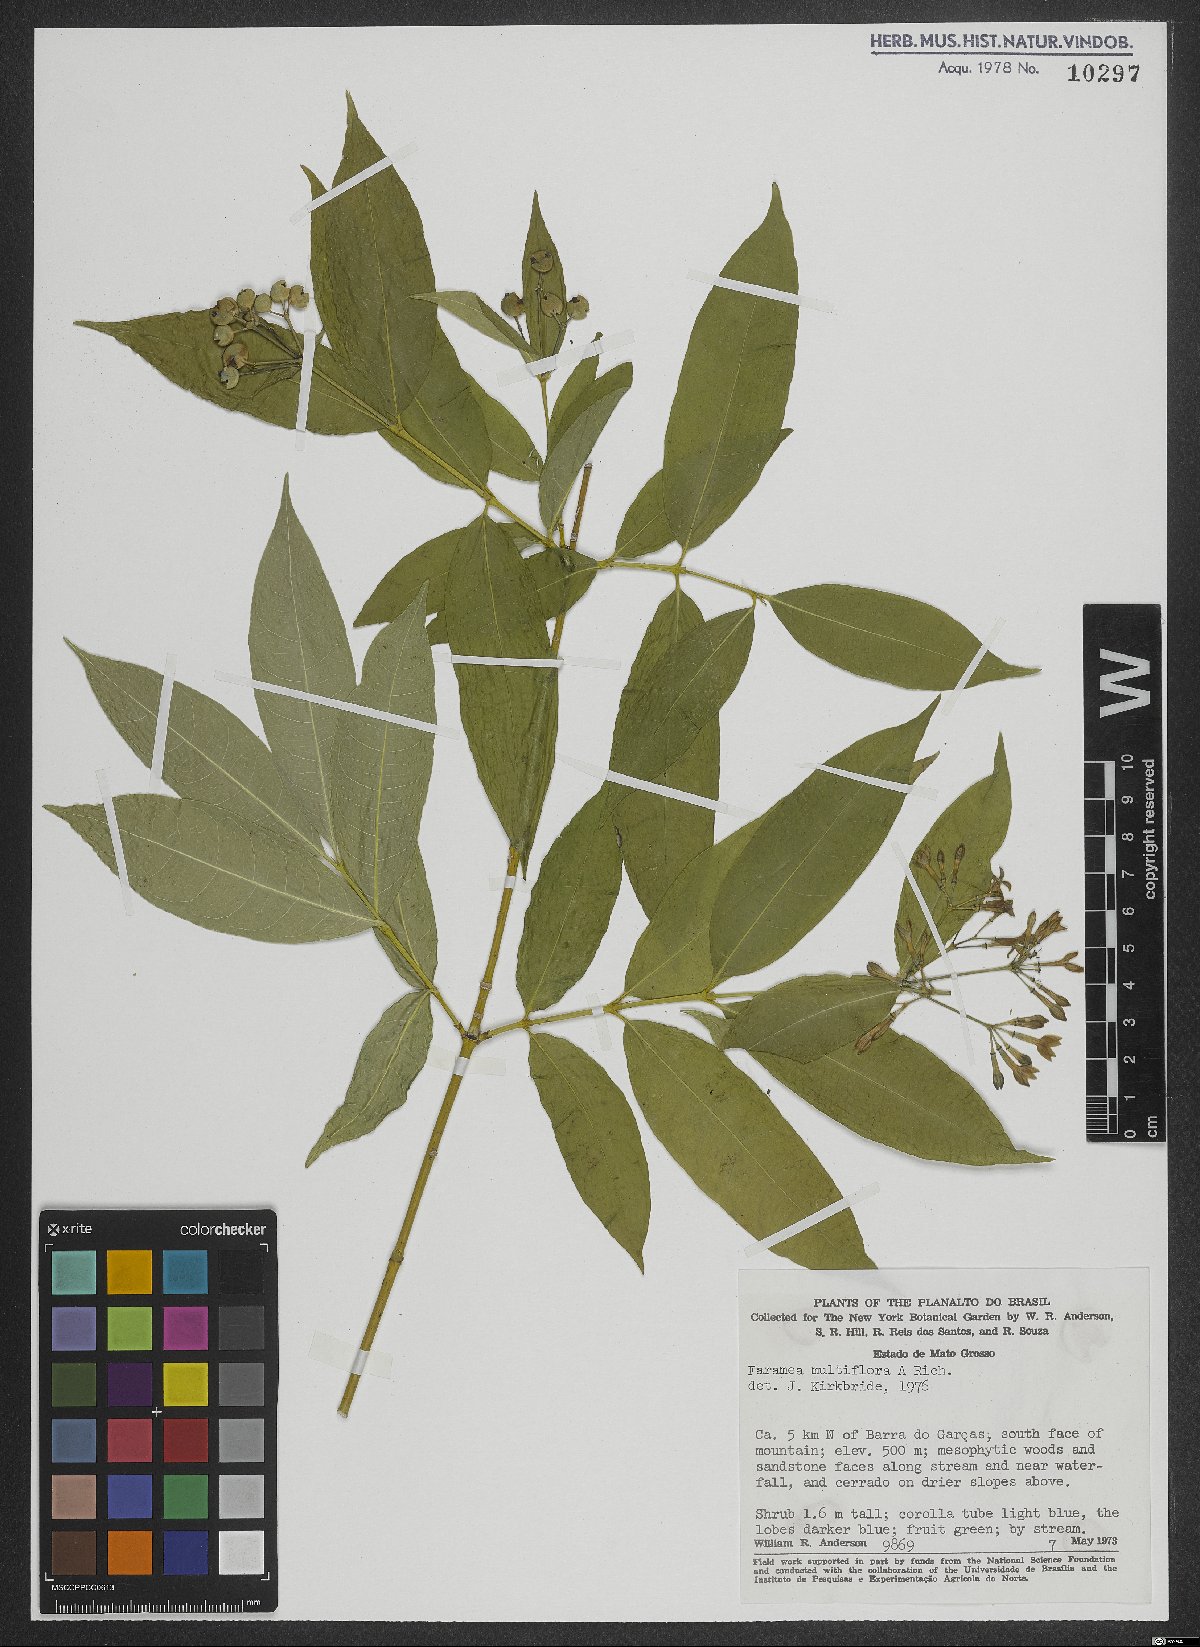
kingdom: Plantae
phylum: Tracheophyta
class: Magnoliopsida
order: Gentianales
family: Rubiaceae
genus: Faramea
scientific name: Faramea multiflora
